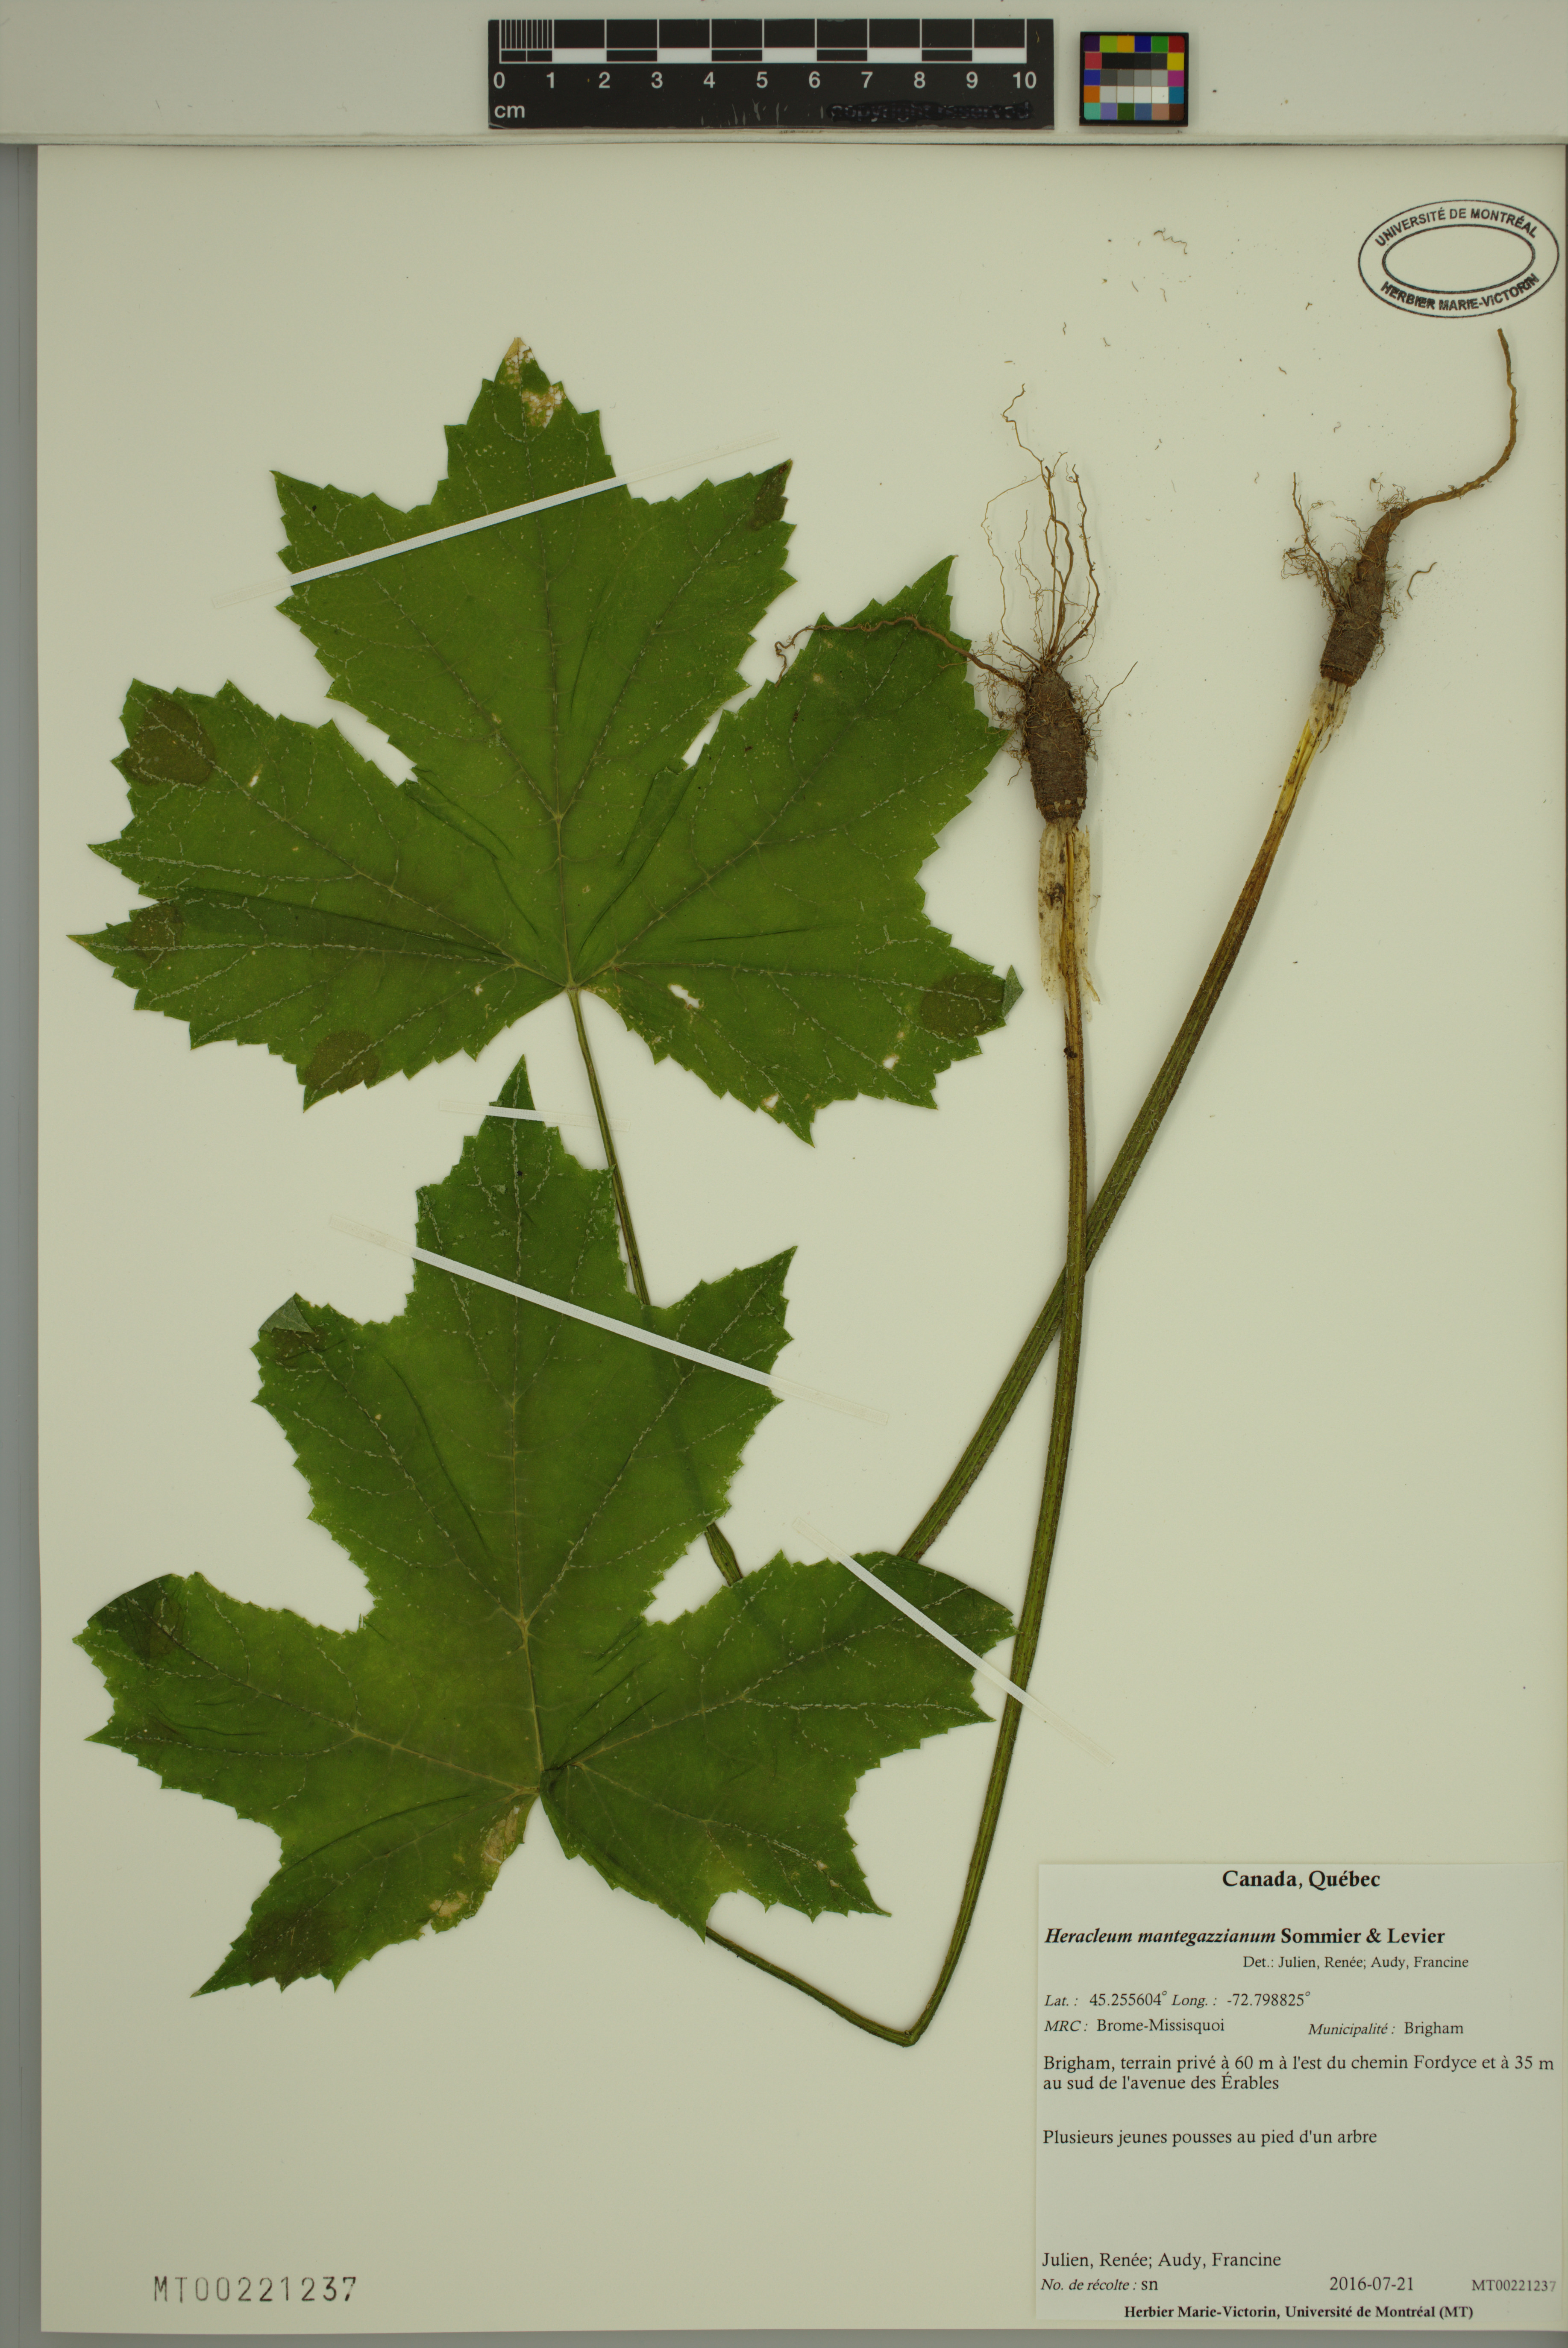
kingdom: Plantae
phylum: Tracheophyta
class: Magnoliopsida
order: Apiales
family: Apiaceae
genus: Heracleum
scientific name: Heracleum mantegazzianum
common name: Giant hogweed
